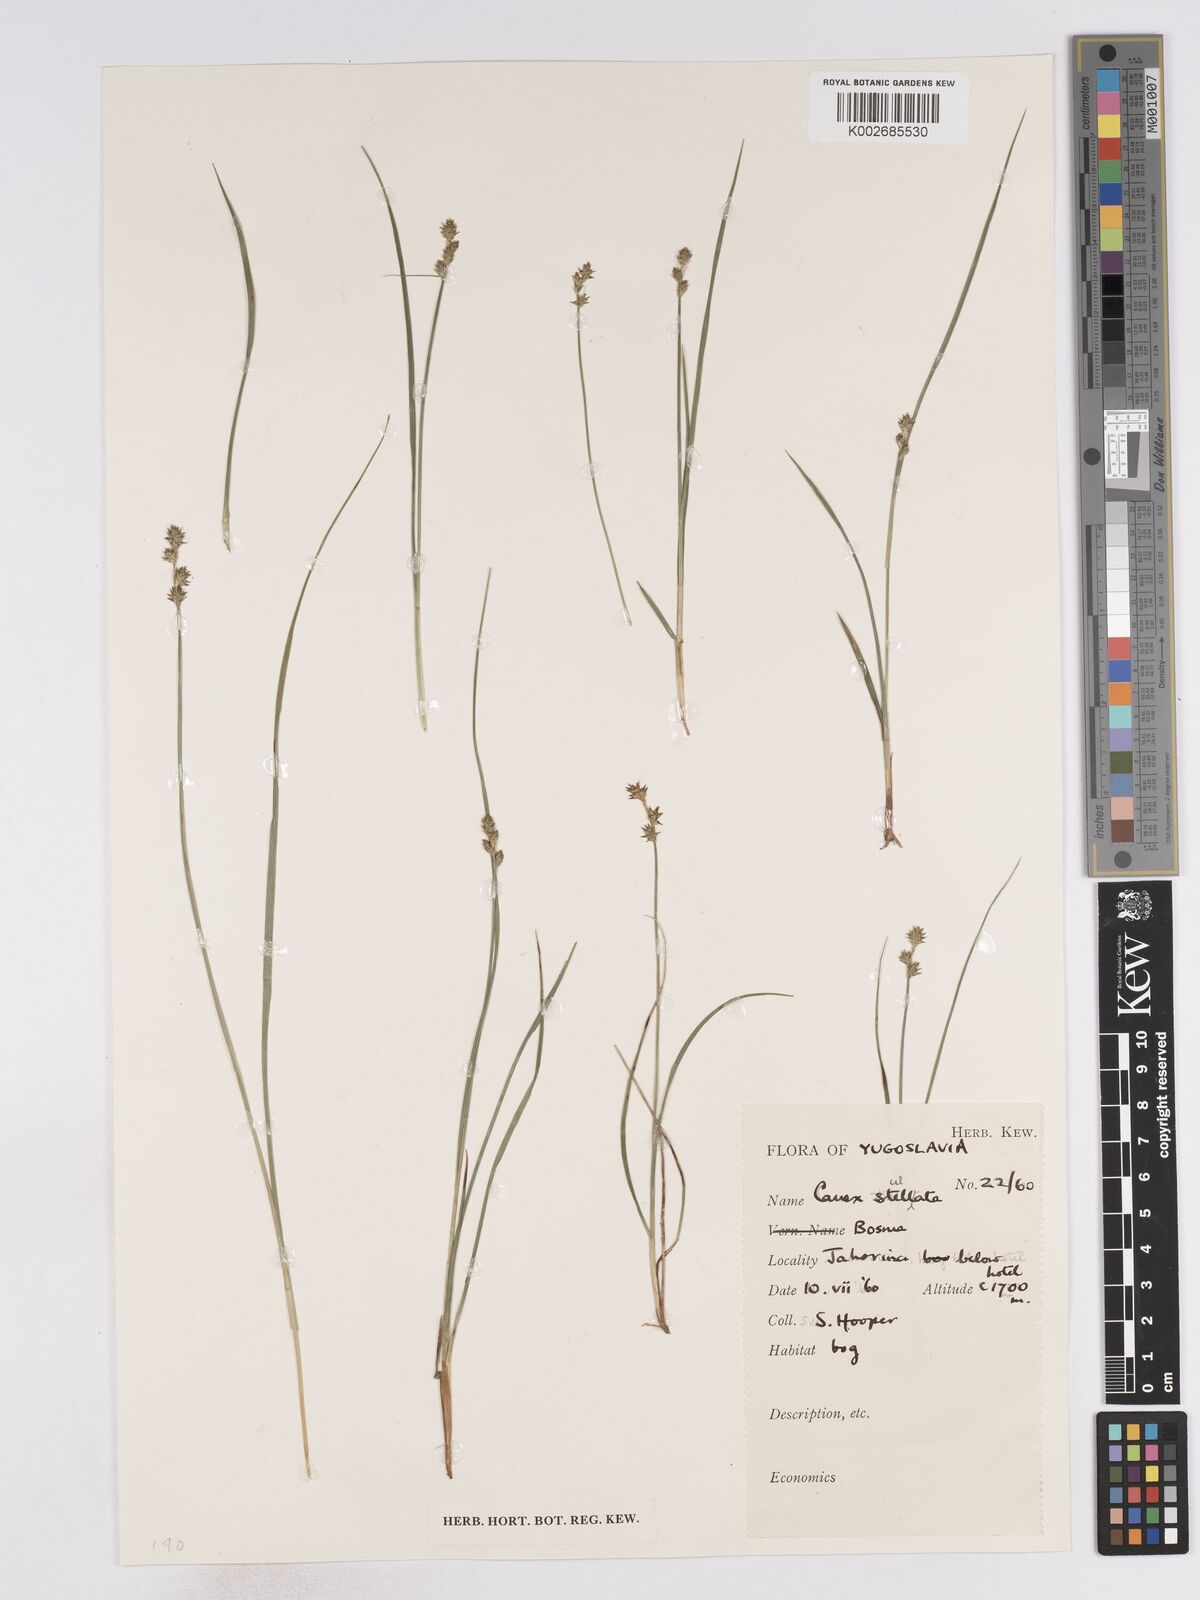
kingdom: Plantae
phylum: Tracheophyta
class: Liliopsida
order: Poales
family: Cyperaceae
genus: Carex
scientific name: Carex echinata
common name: Star sedge
